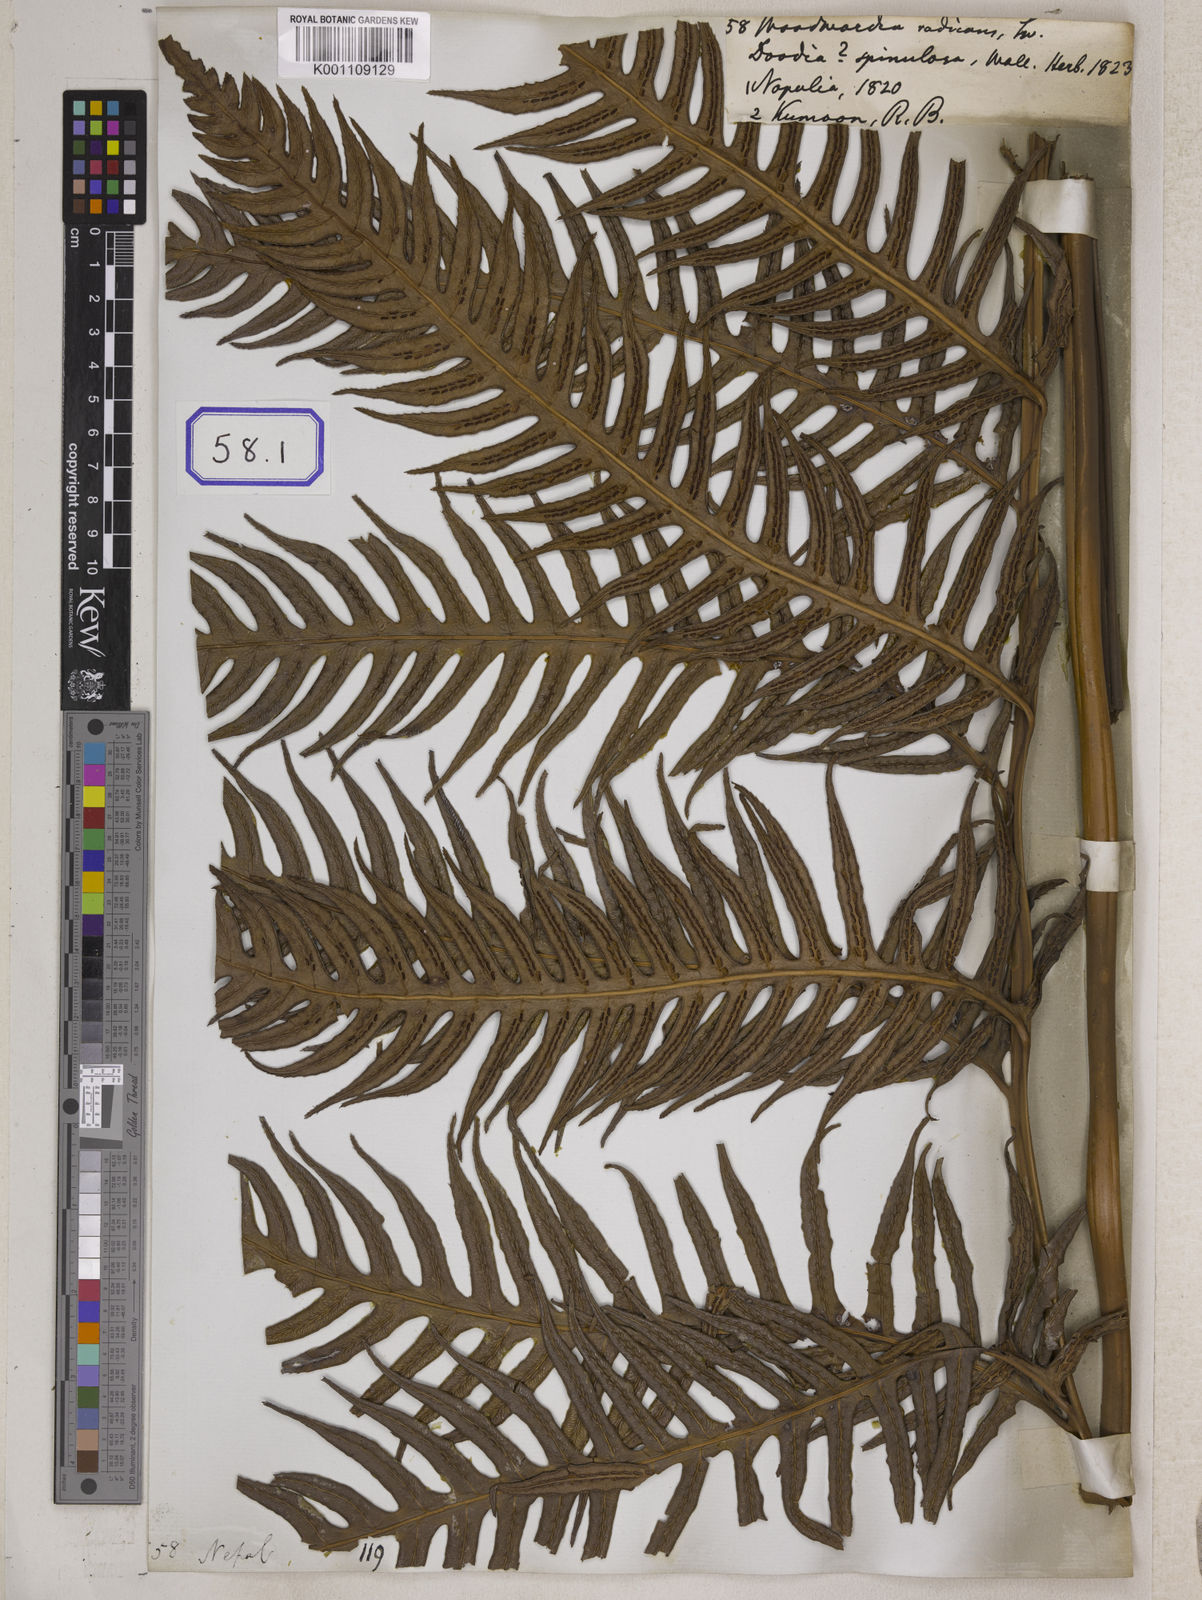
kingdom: Plantae
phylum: Tracheophyta
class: Polypodiopsida
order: Polypodiales
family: Blechnaceae
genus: Woodwardia
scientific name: Woodwardia
